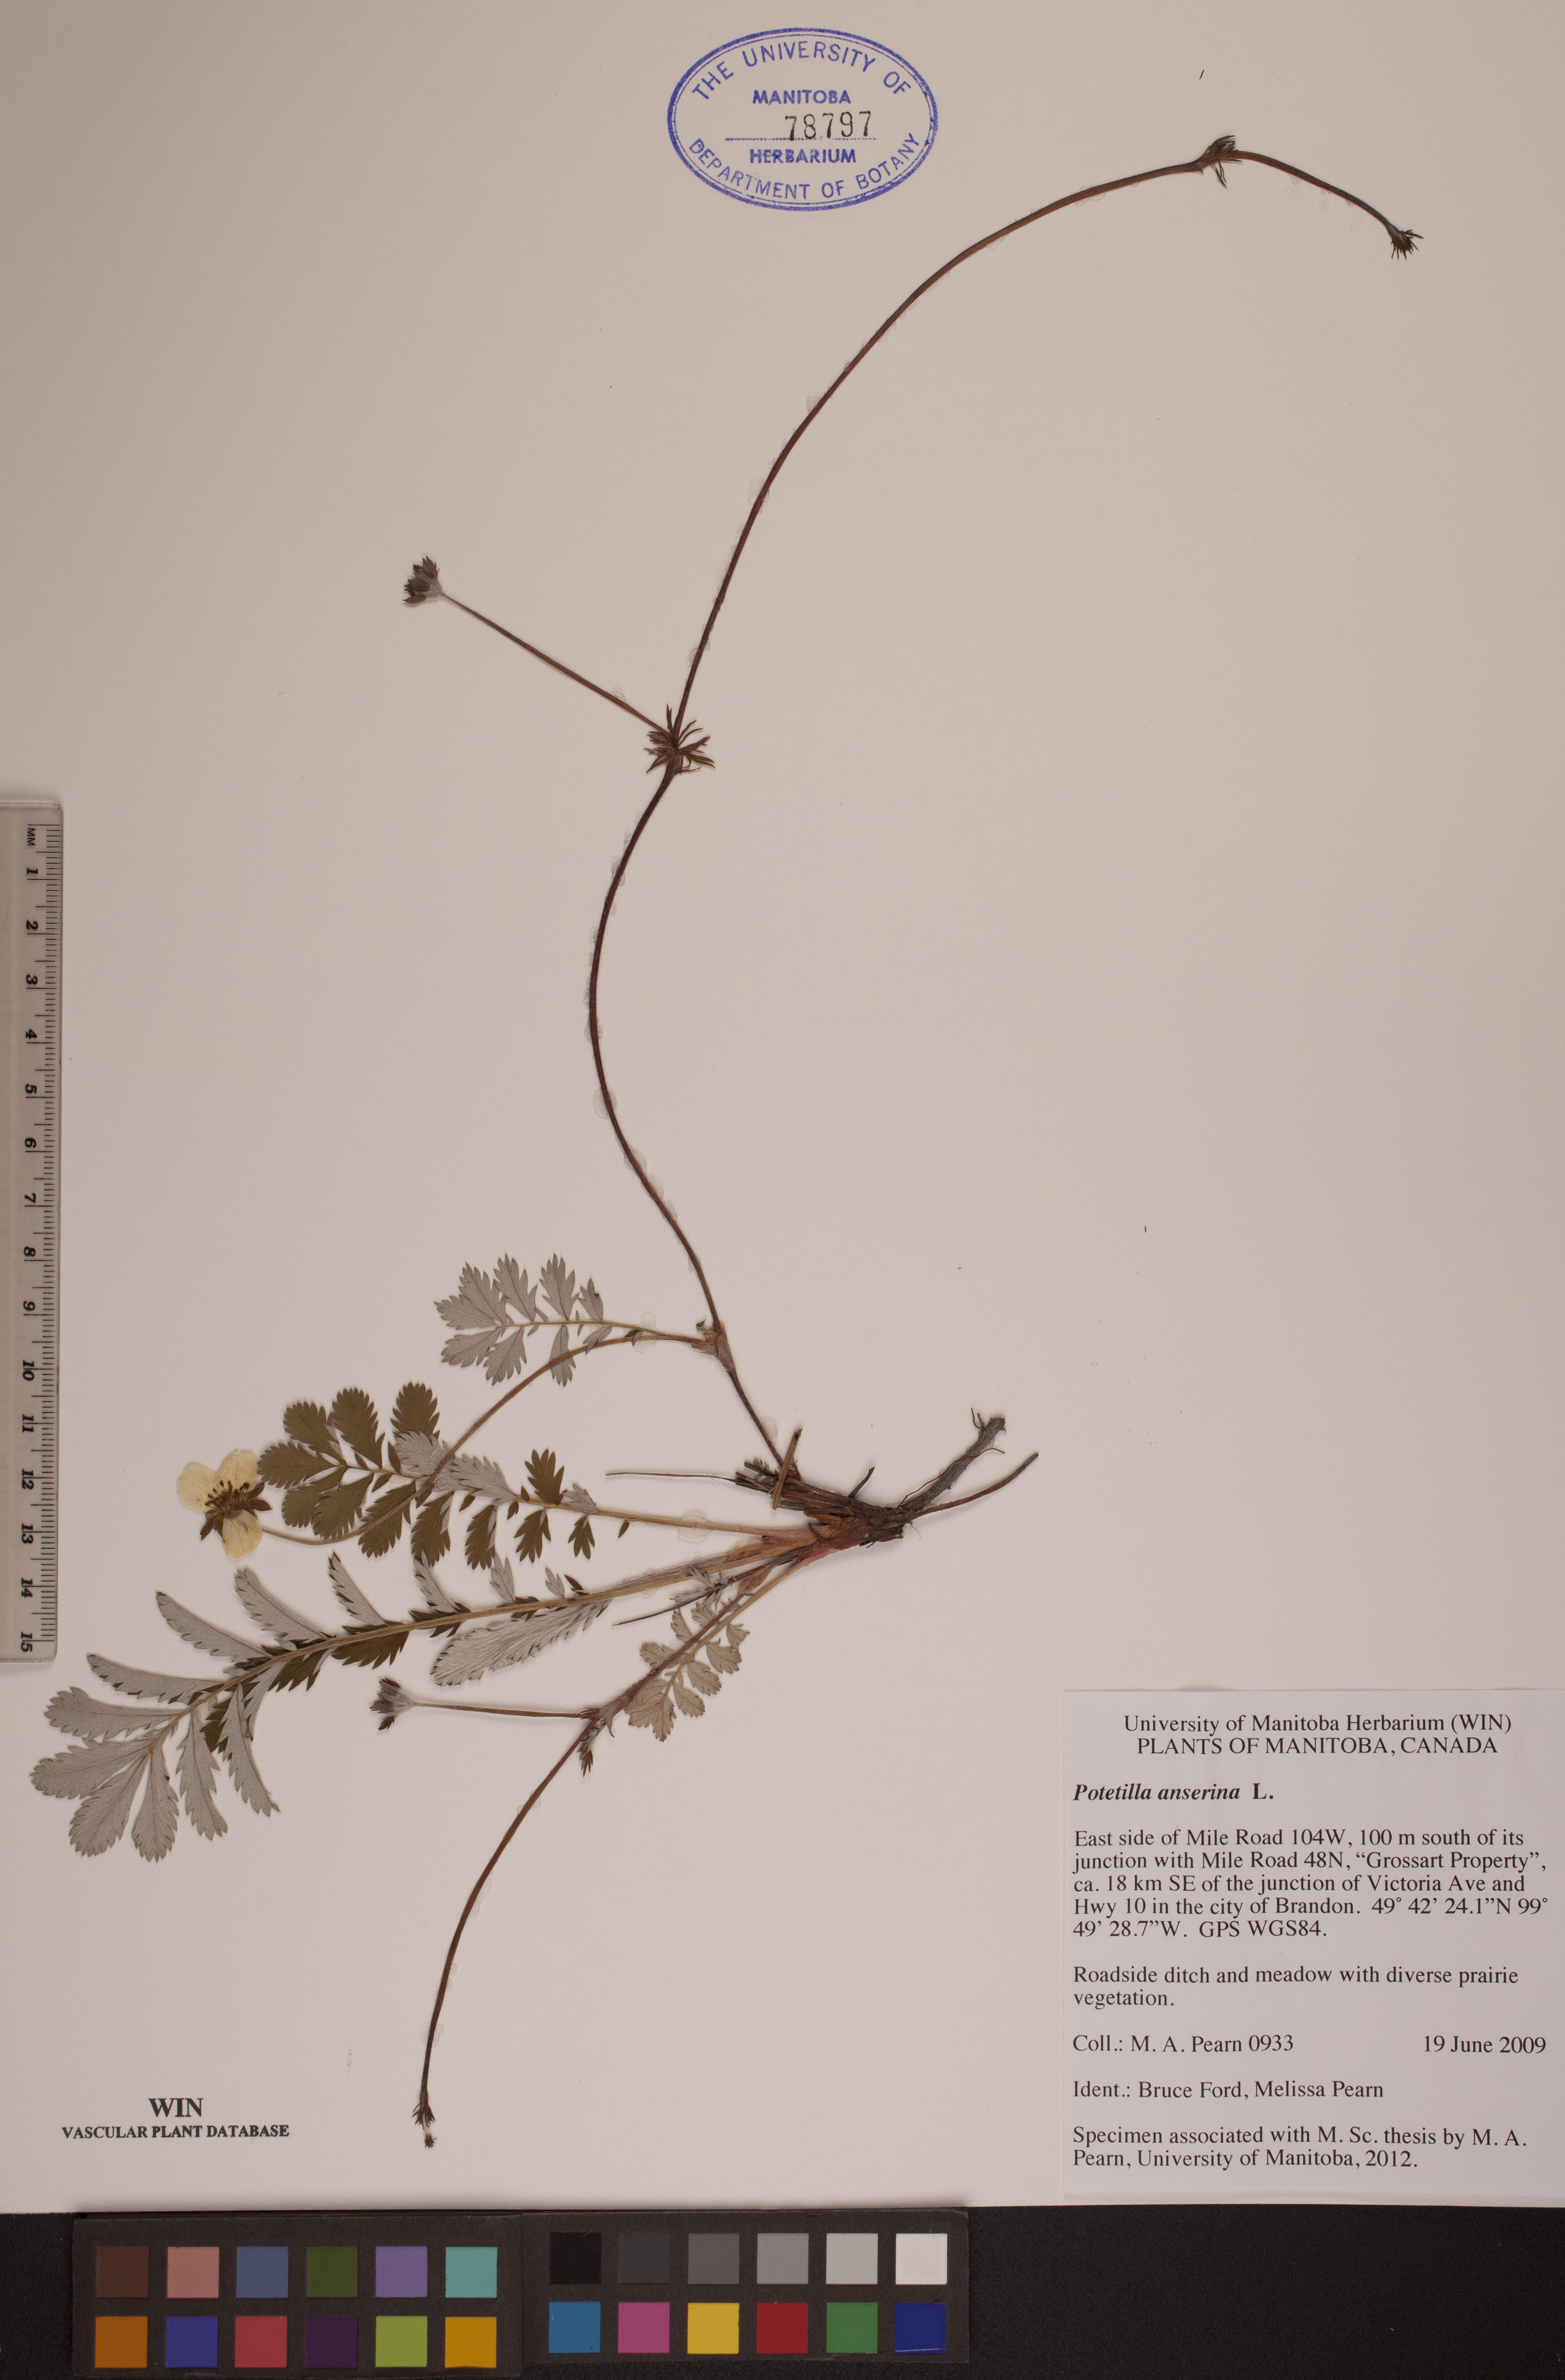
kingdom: Plantae
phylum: Tracheophyta
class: Magnoliopsida
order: Rosales
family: Rosaceae
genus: Argentina
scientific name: Argentina anserina
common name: Common silverweed
